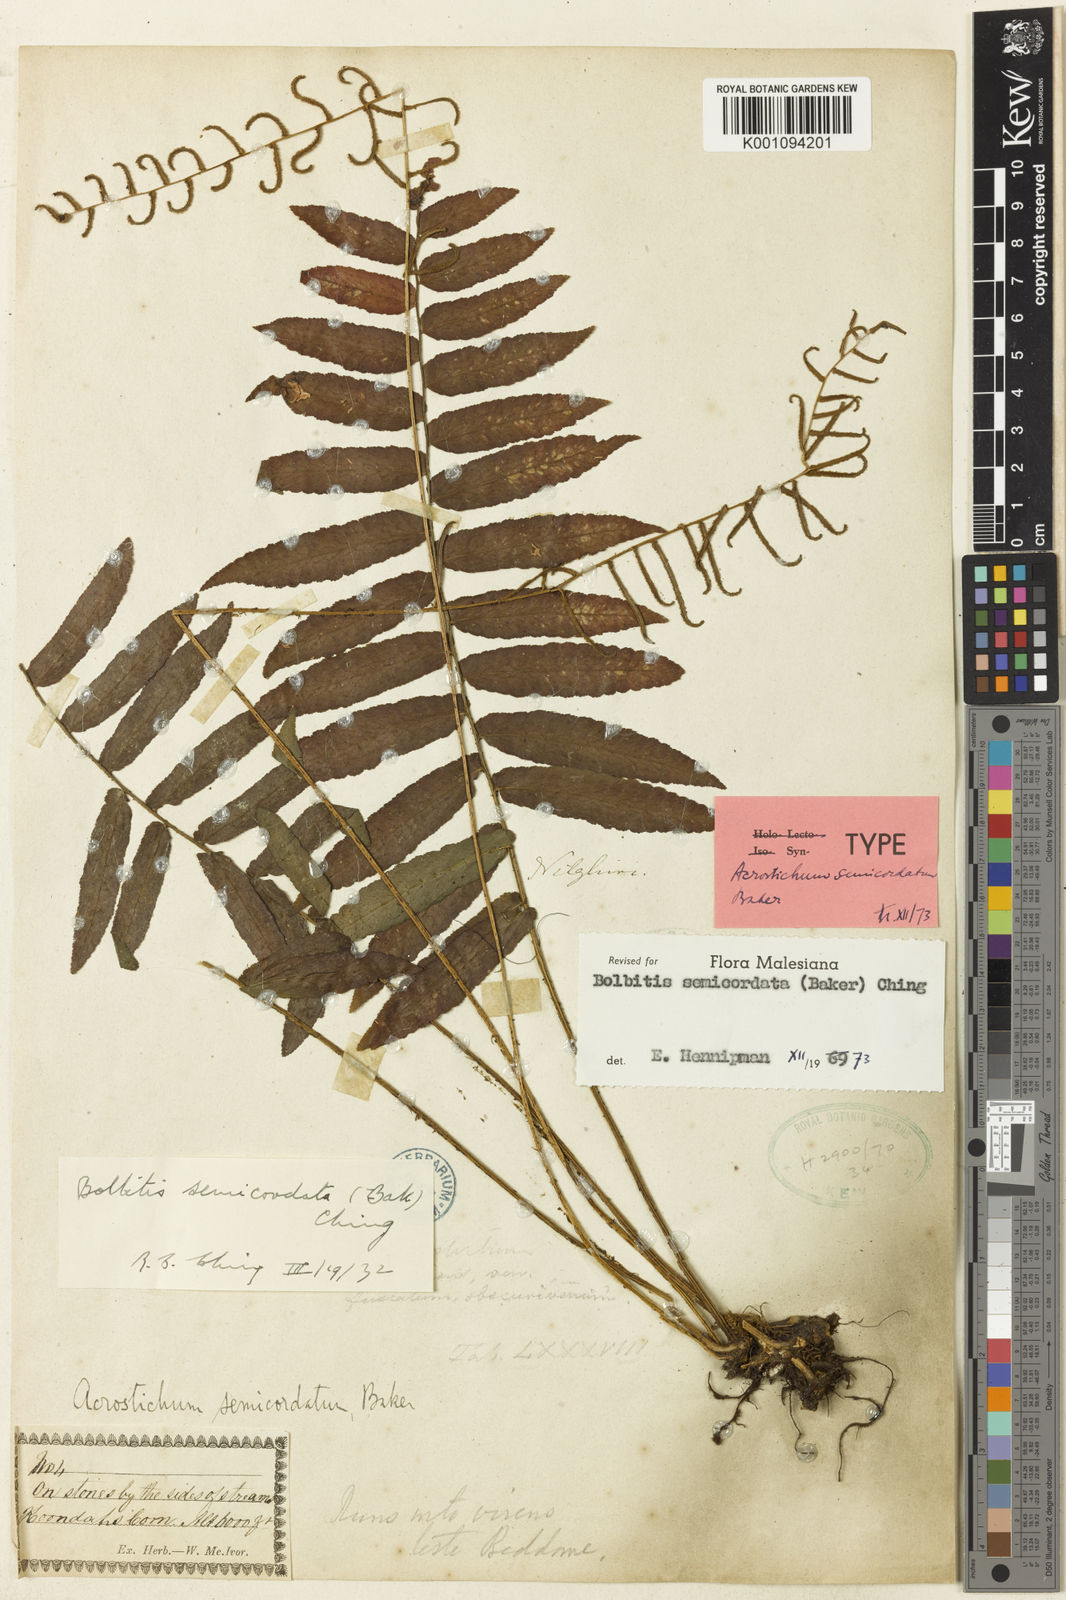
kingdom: Plantae
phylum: Tracheophyta
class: Polypodiopsida
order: Polypodiales
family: Dryopteridaceae
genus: Bolbitis
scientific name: Bolbitis semicordata
